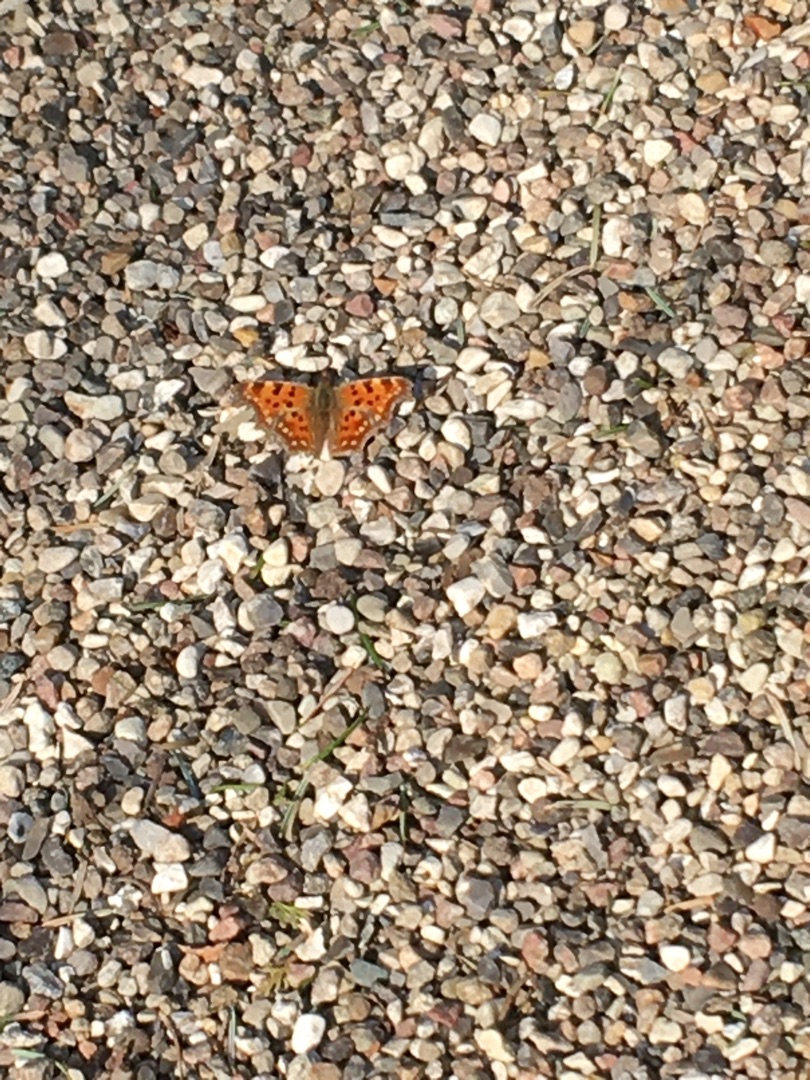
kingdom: Animalia
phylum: Arthropoda
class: Insecta
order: Lepidoptera
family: Nymphalidae
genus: Polygonia
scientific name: Polygonia c-album
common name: Det hvide C
